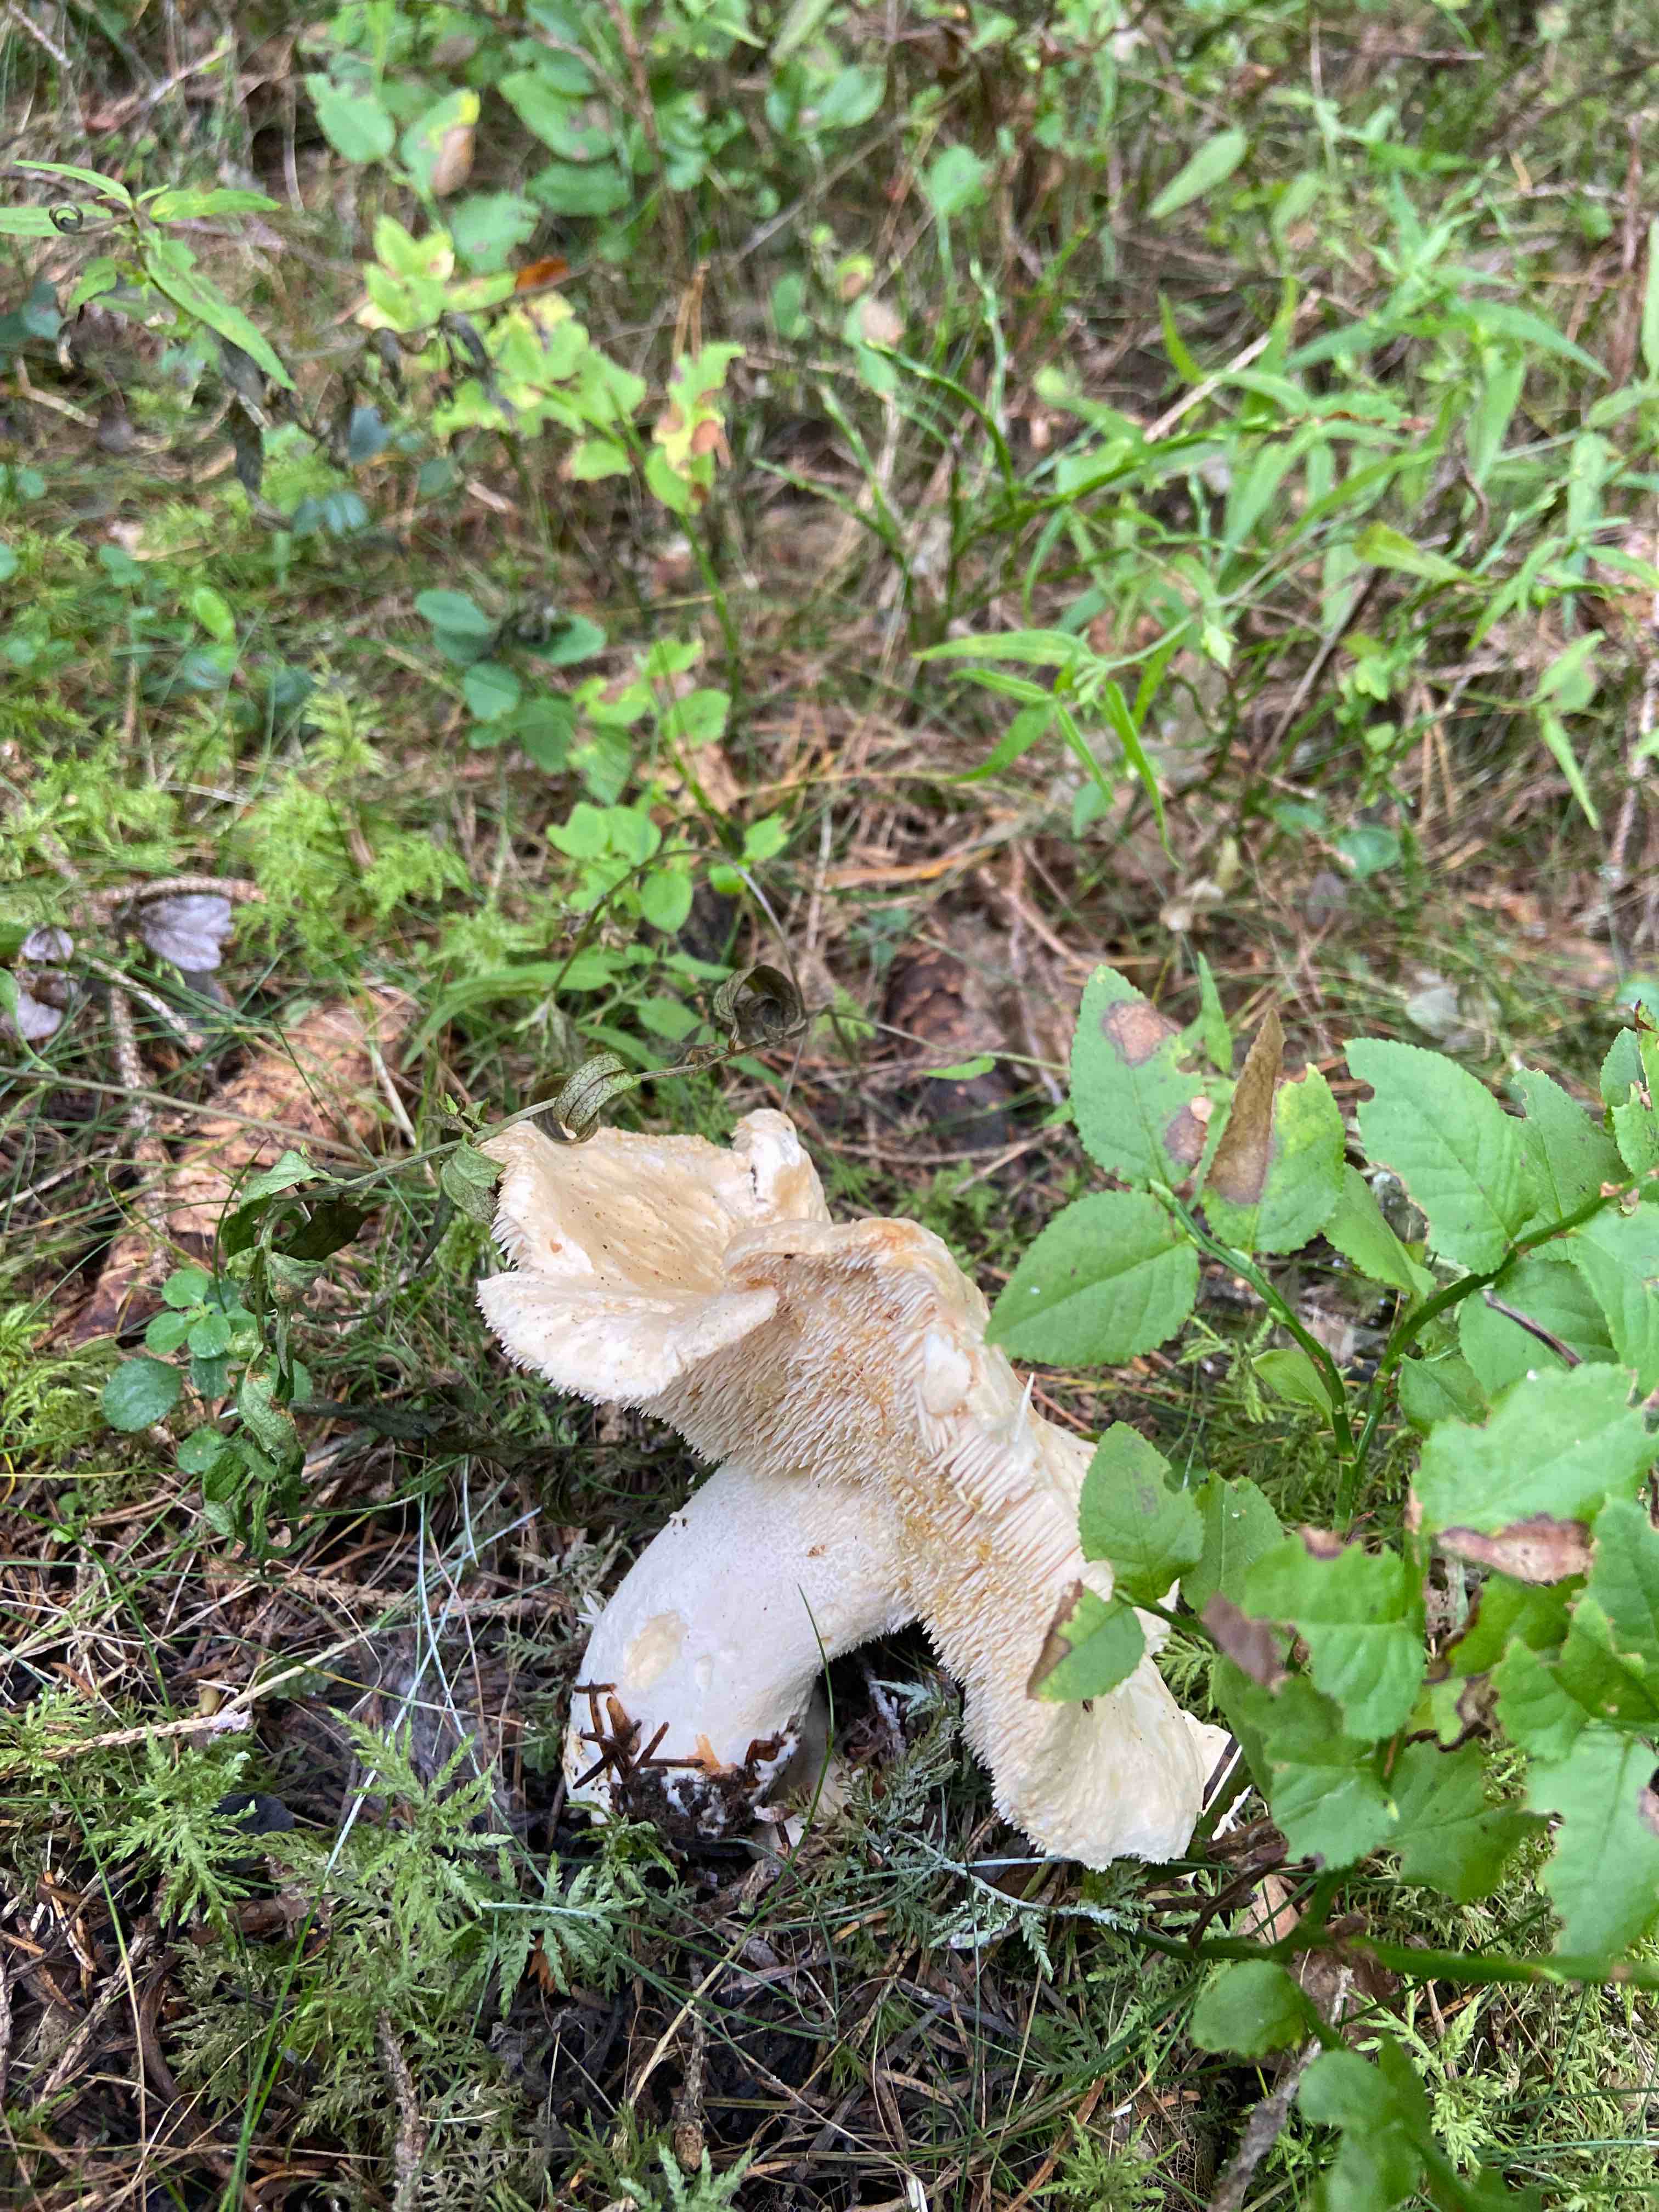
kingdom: Fungi
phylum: Basidiomycota
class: Agaricomycetes
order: Cantharellales
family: Hydnaceae
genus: Hydnum
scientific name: Hydnum
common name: pigsvamp
